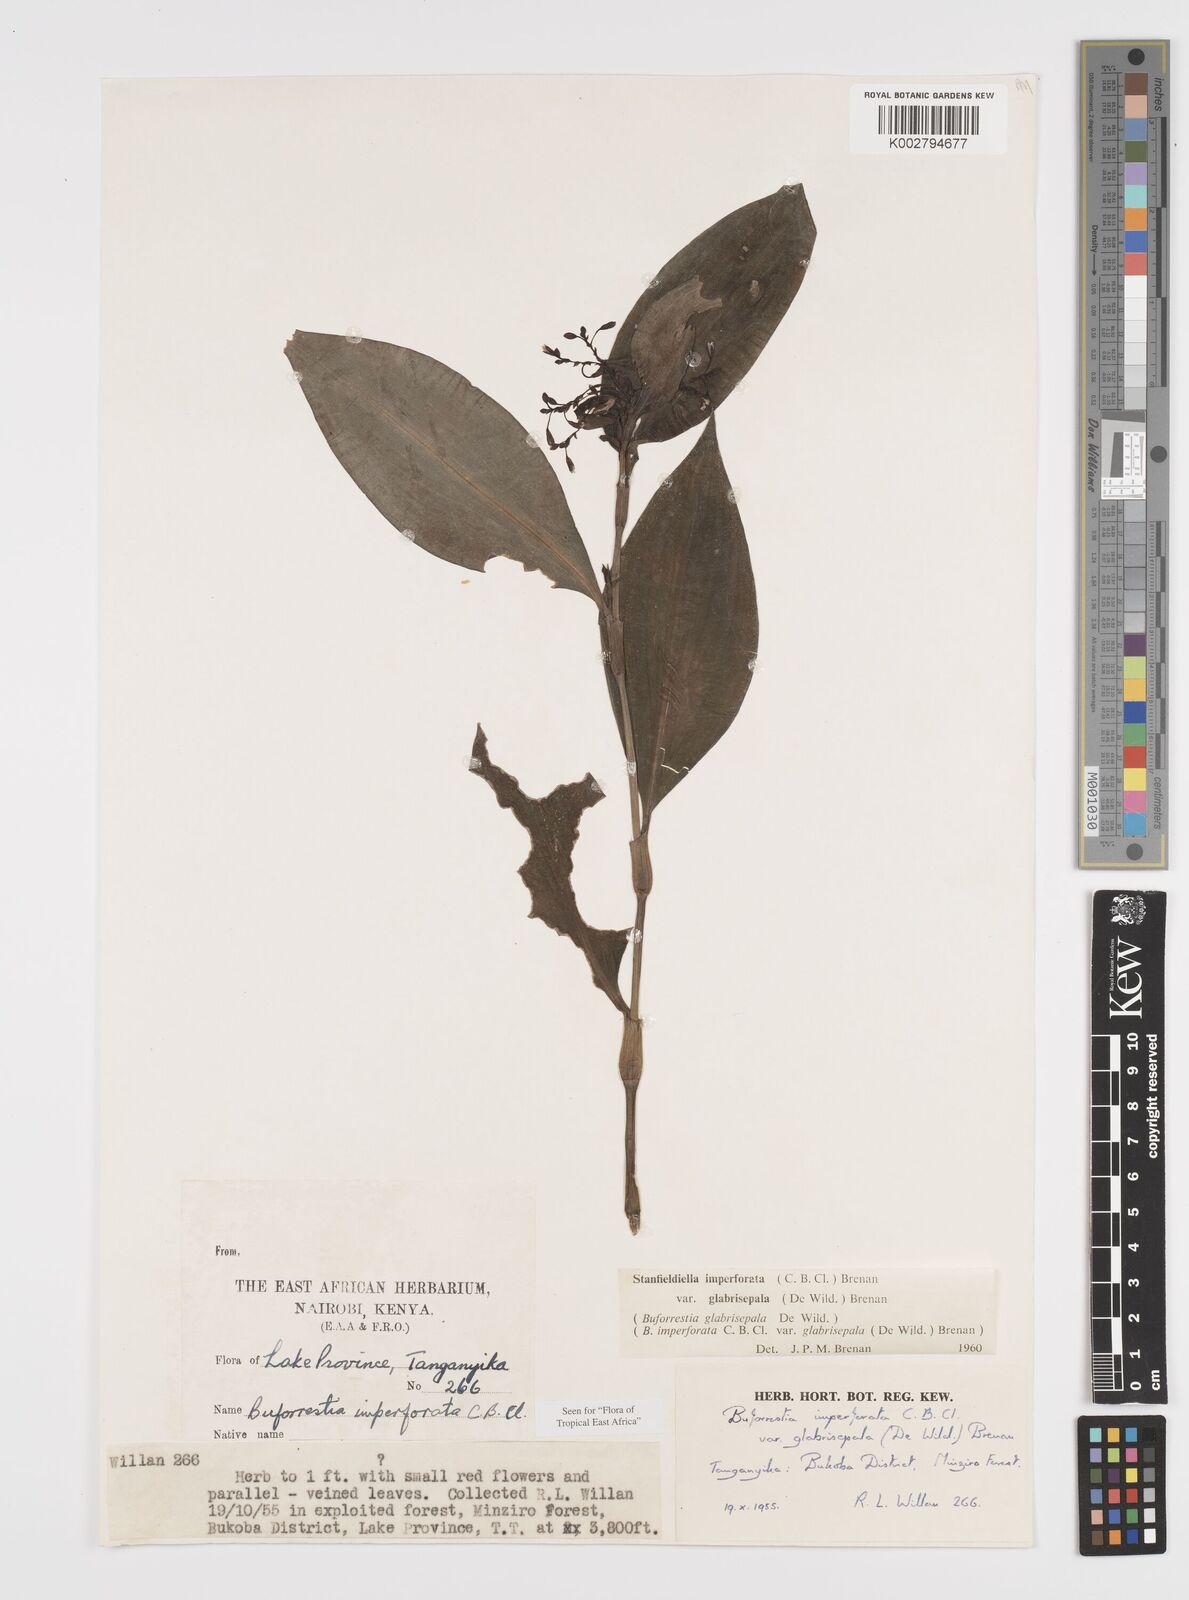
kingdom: Plantae
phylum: Tracheophyta
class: Liliopsida
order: Commelinales
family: Commelinaceae
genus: Stanfieldiella
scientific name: Stanfieldiella imperforata
